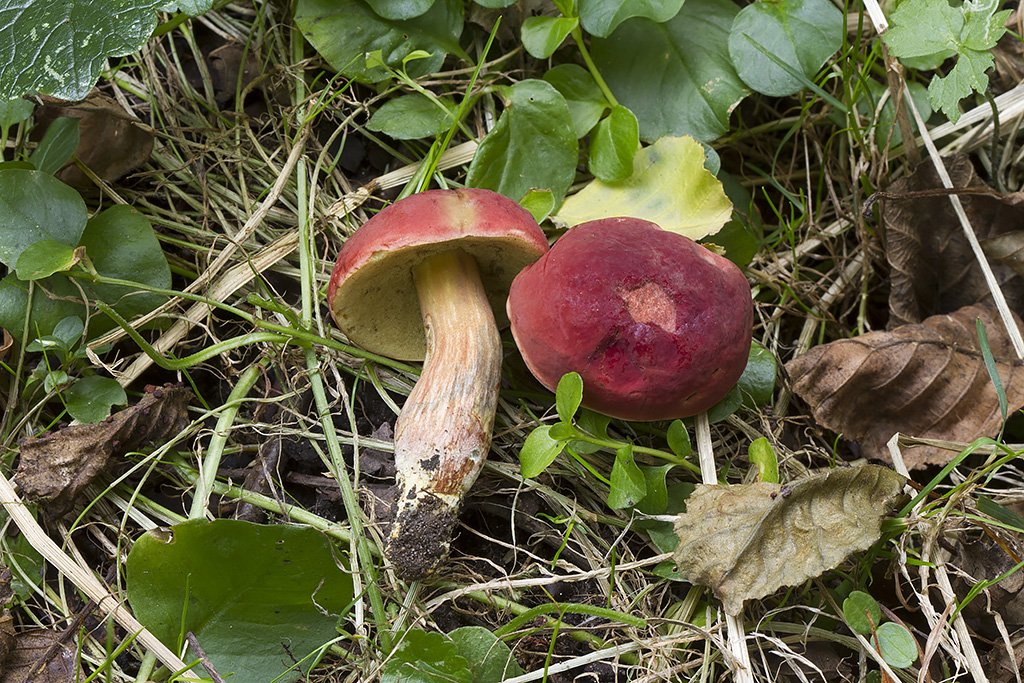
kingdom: Fungi
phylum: Basidiomycota
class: Agaricomycetes
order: Boletales
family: Boletaceae
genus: Hortiboletus
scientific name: Hortiboletus rubellus
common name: blodrød rørhat
